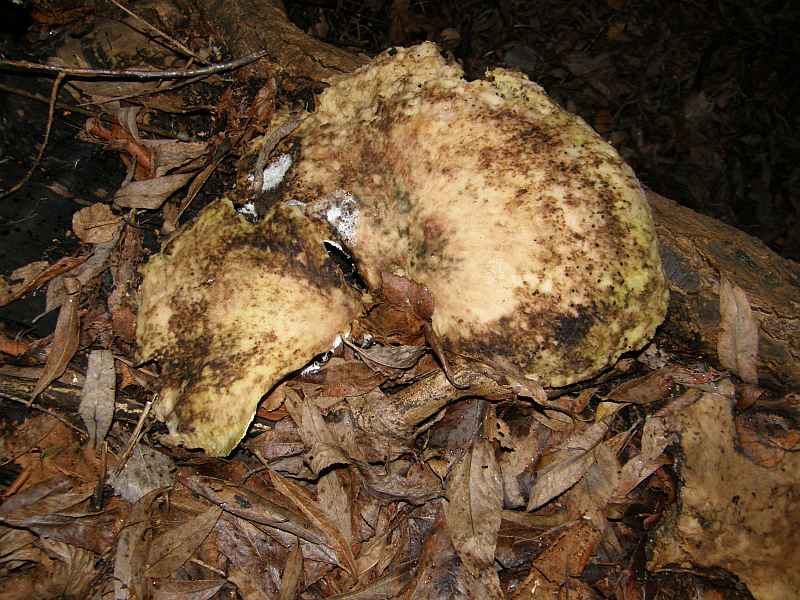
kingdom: Fungi
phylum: Basidiomycota
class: Agaricomycetes
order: Polyporales
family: Polyporaceae
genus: Cerioporus
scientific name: Cerioporus squamosus
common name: skællet stilkporesvamp
